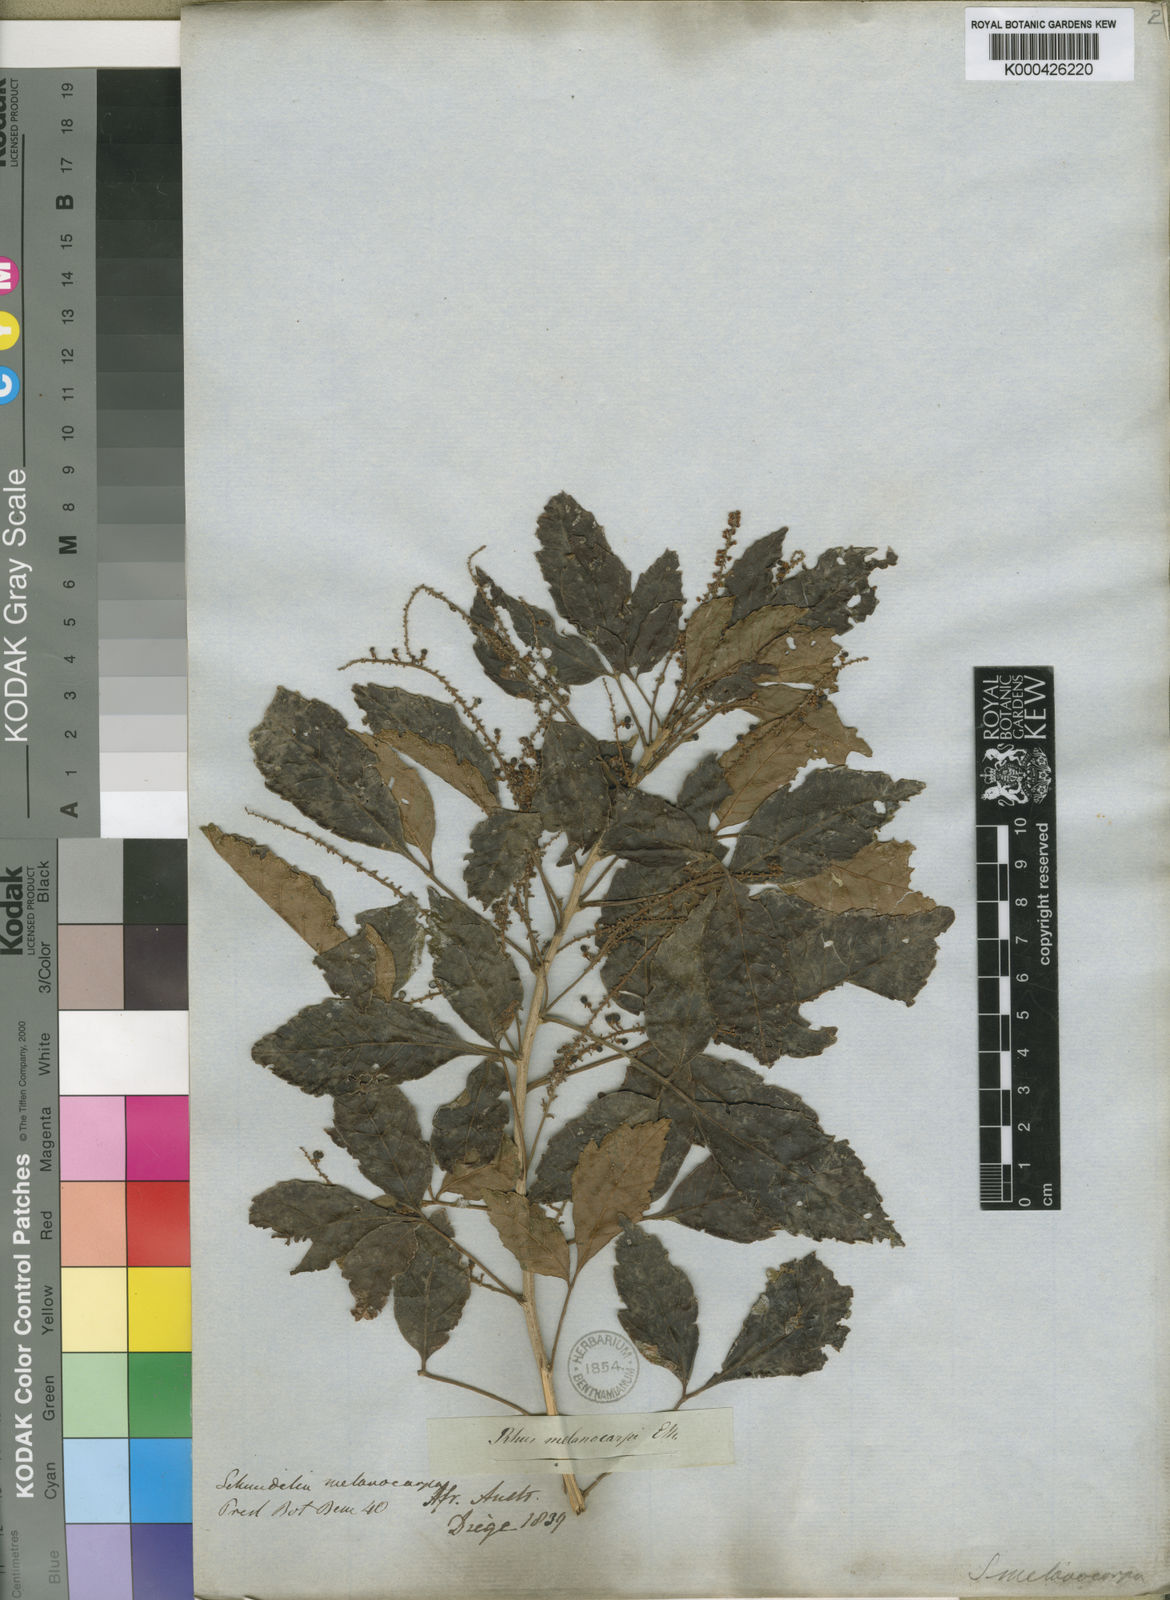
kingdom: Plantae
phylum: Tracheophyta
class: Magnoliopsida
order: Sapindales
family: Sapindaceae
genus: Allophylus
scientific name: Allophylus africanus
